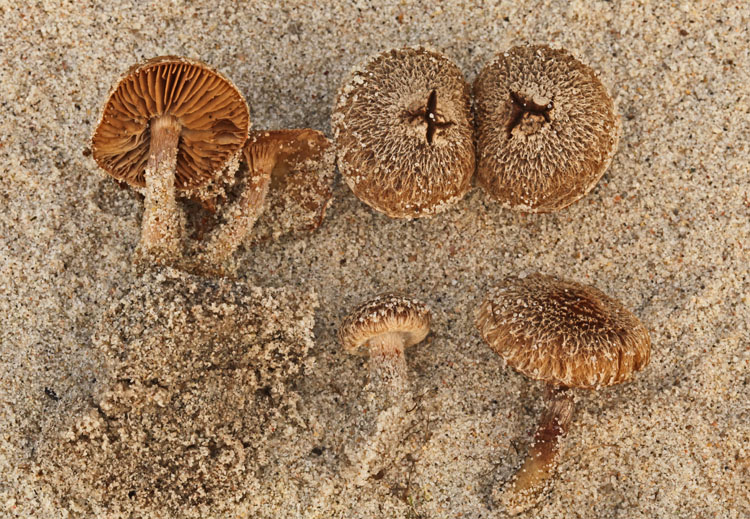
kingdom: Fungi
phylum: Basidiomycota
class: Agaricomycetes
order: Agaricales
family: Inocybaceae
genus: Inocybe
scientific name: Inocybe lacera
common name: laset trævlhat
